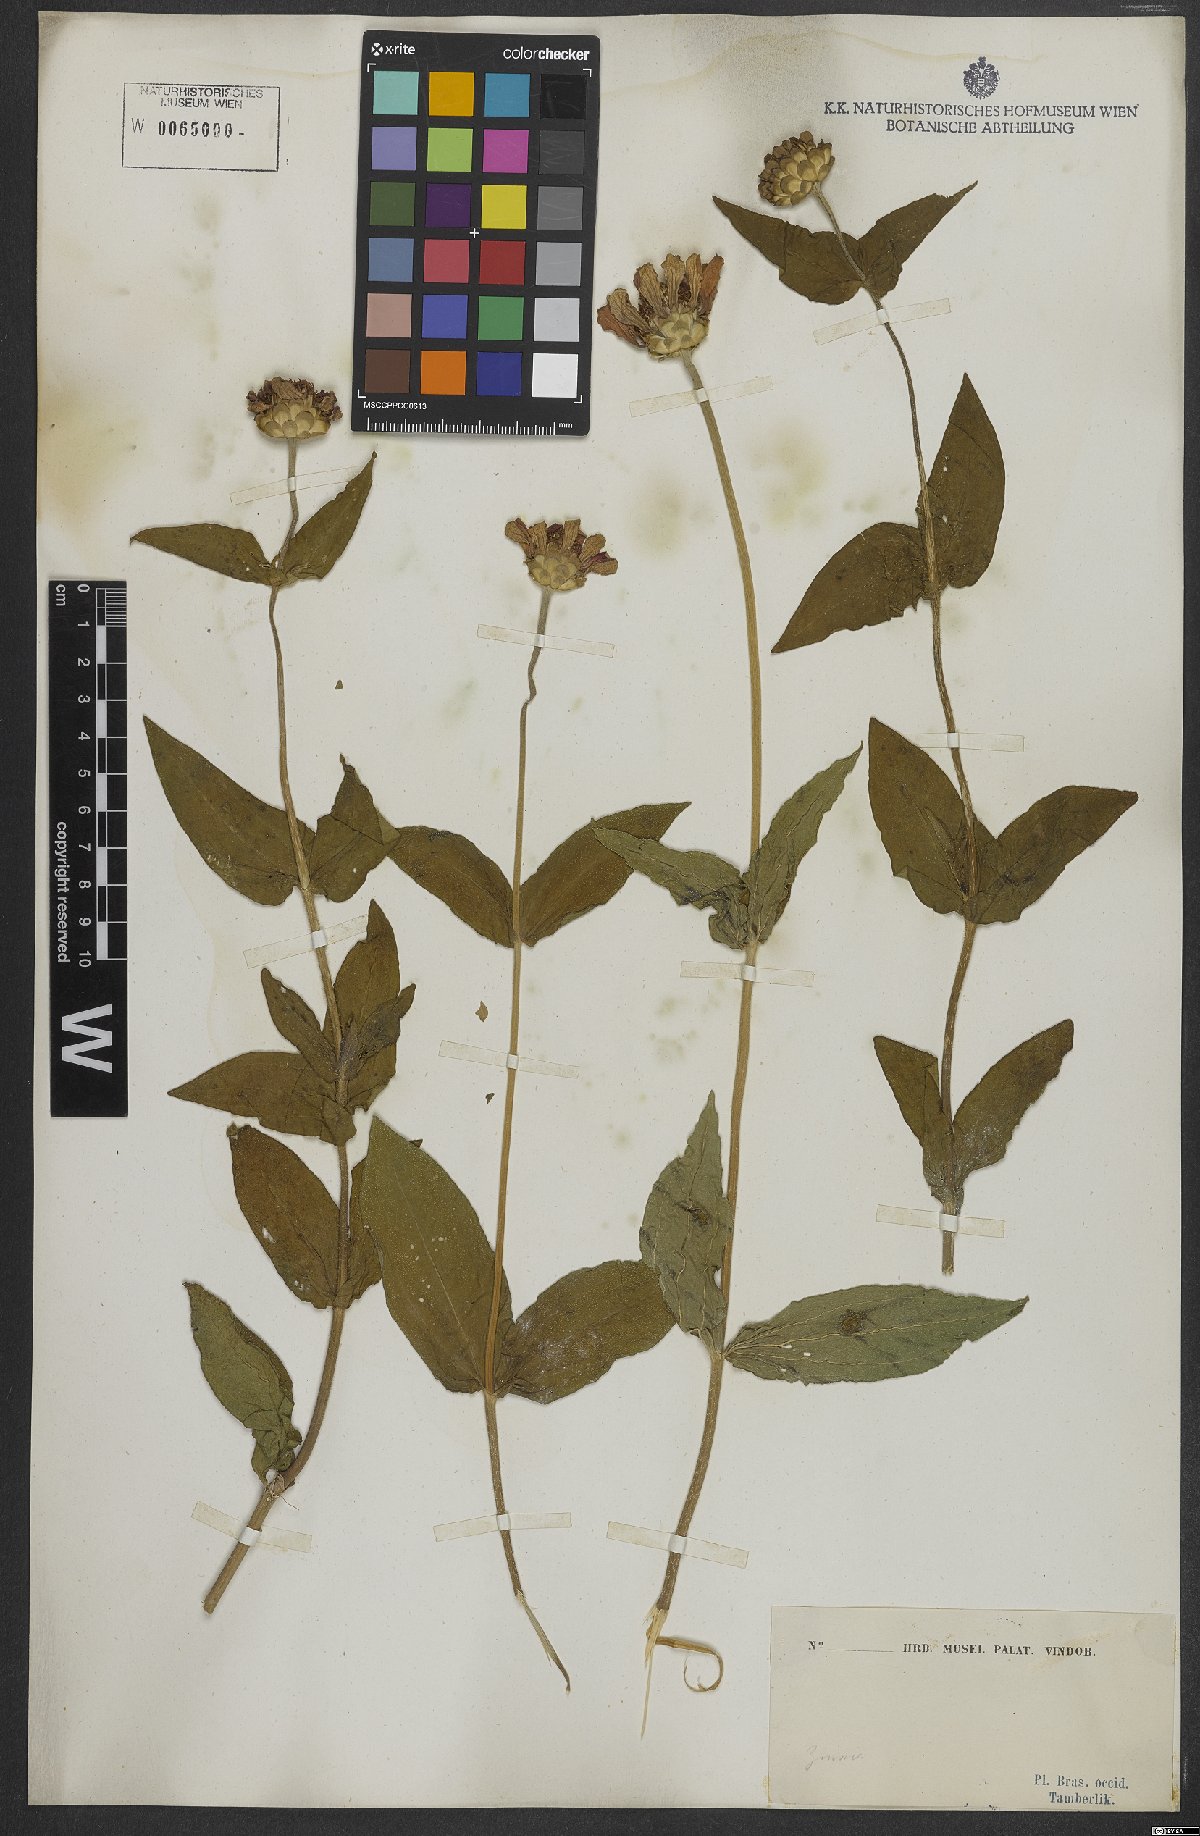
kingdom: Plantae
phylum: Tracheophyta
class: Magnoliopsida
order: Asterales
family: Asteraceae
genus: Zinnia
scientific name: Zinnia elegans
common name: Youth-and-age
